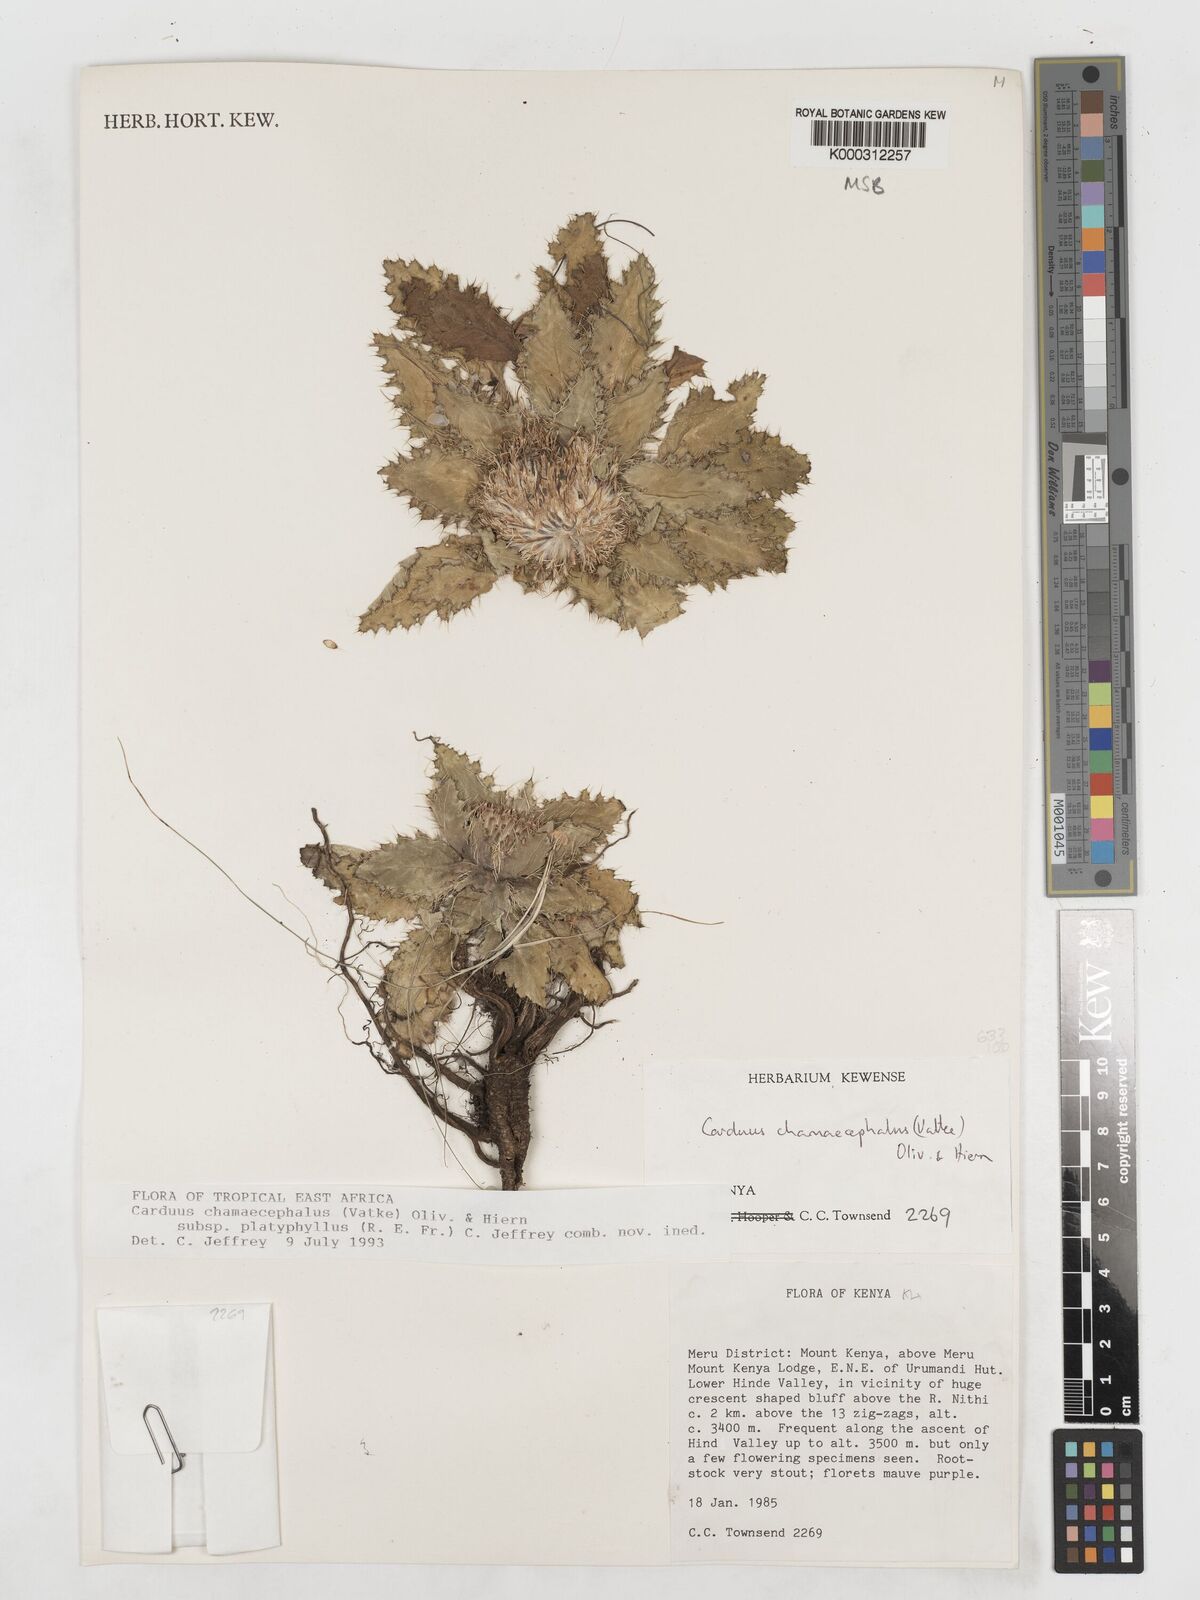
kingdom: Plantae
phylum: Tracheophyta
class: Magnoliopsida
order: Asterales
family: Asteraceae
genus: Carduus
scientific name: Carduus schimperi
